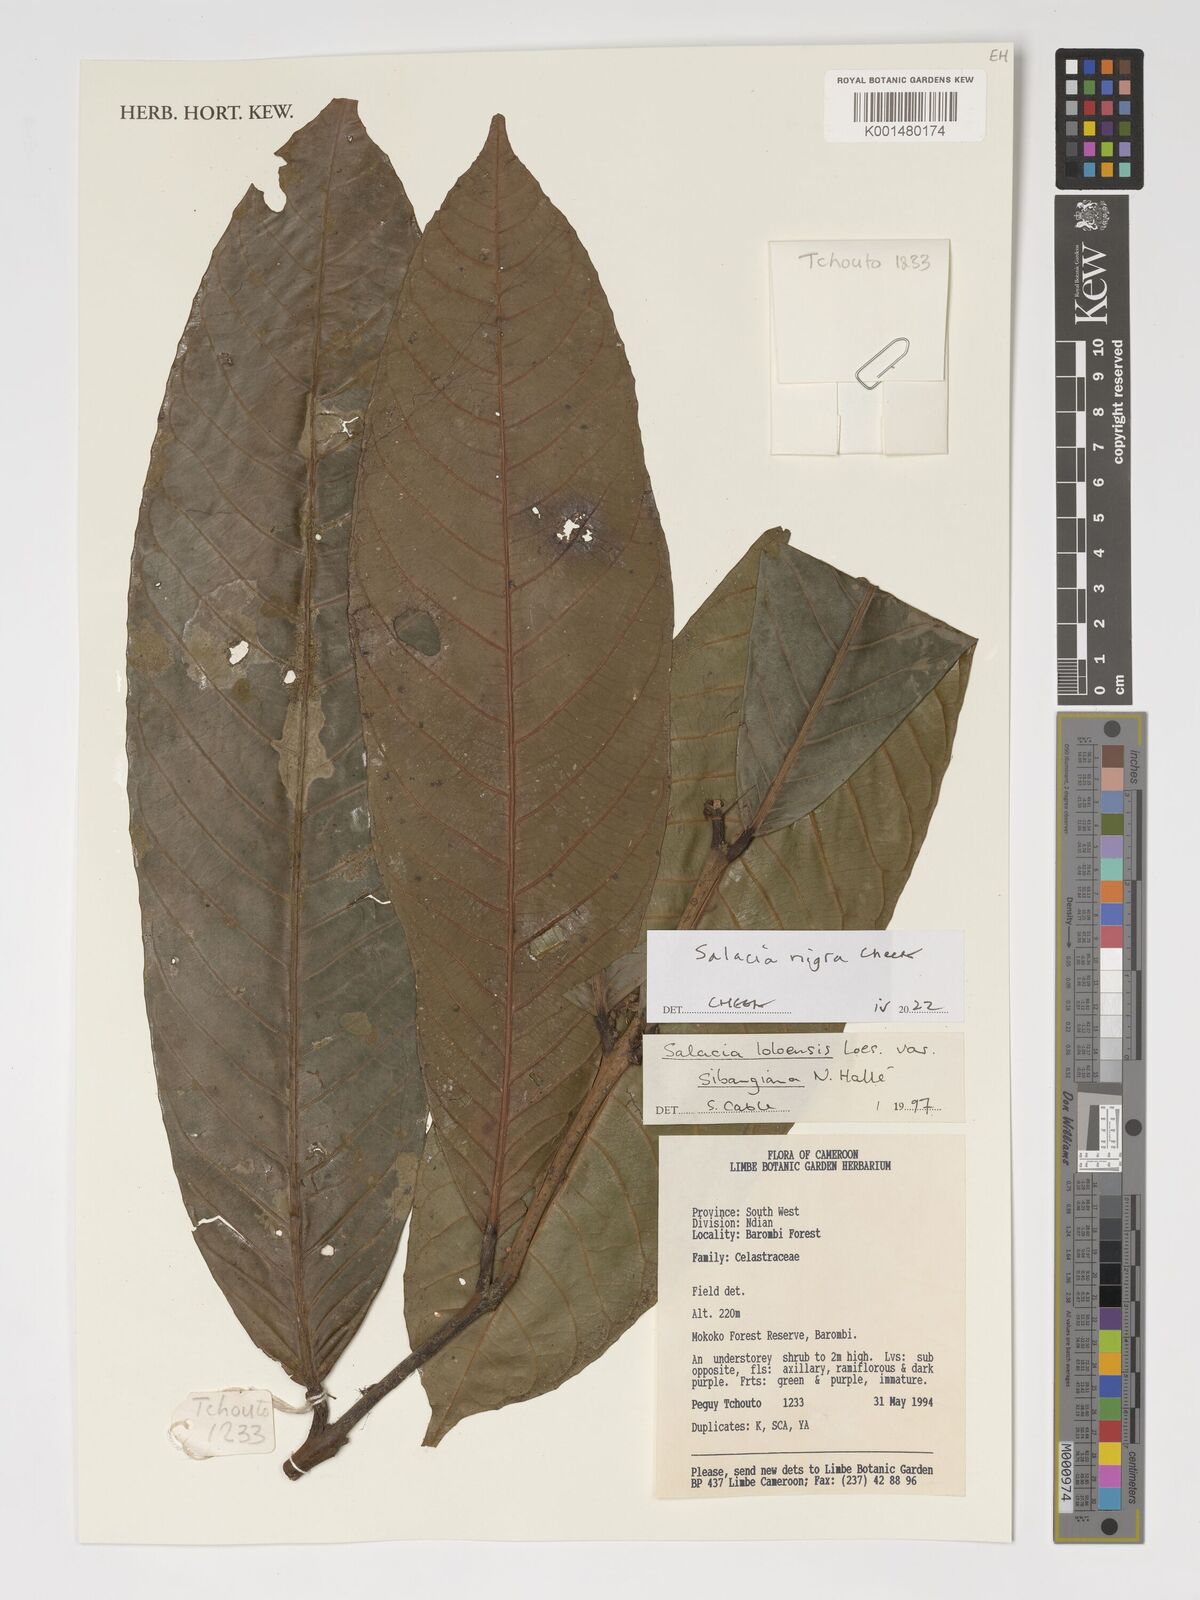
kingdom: Plantae
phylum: Tracheophyta
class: Magnoliopsida
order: Celastrales
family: Celastraceae
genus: Salacia
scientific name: Salacia nigra
